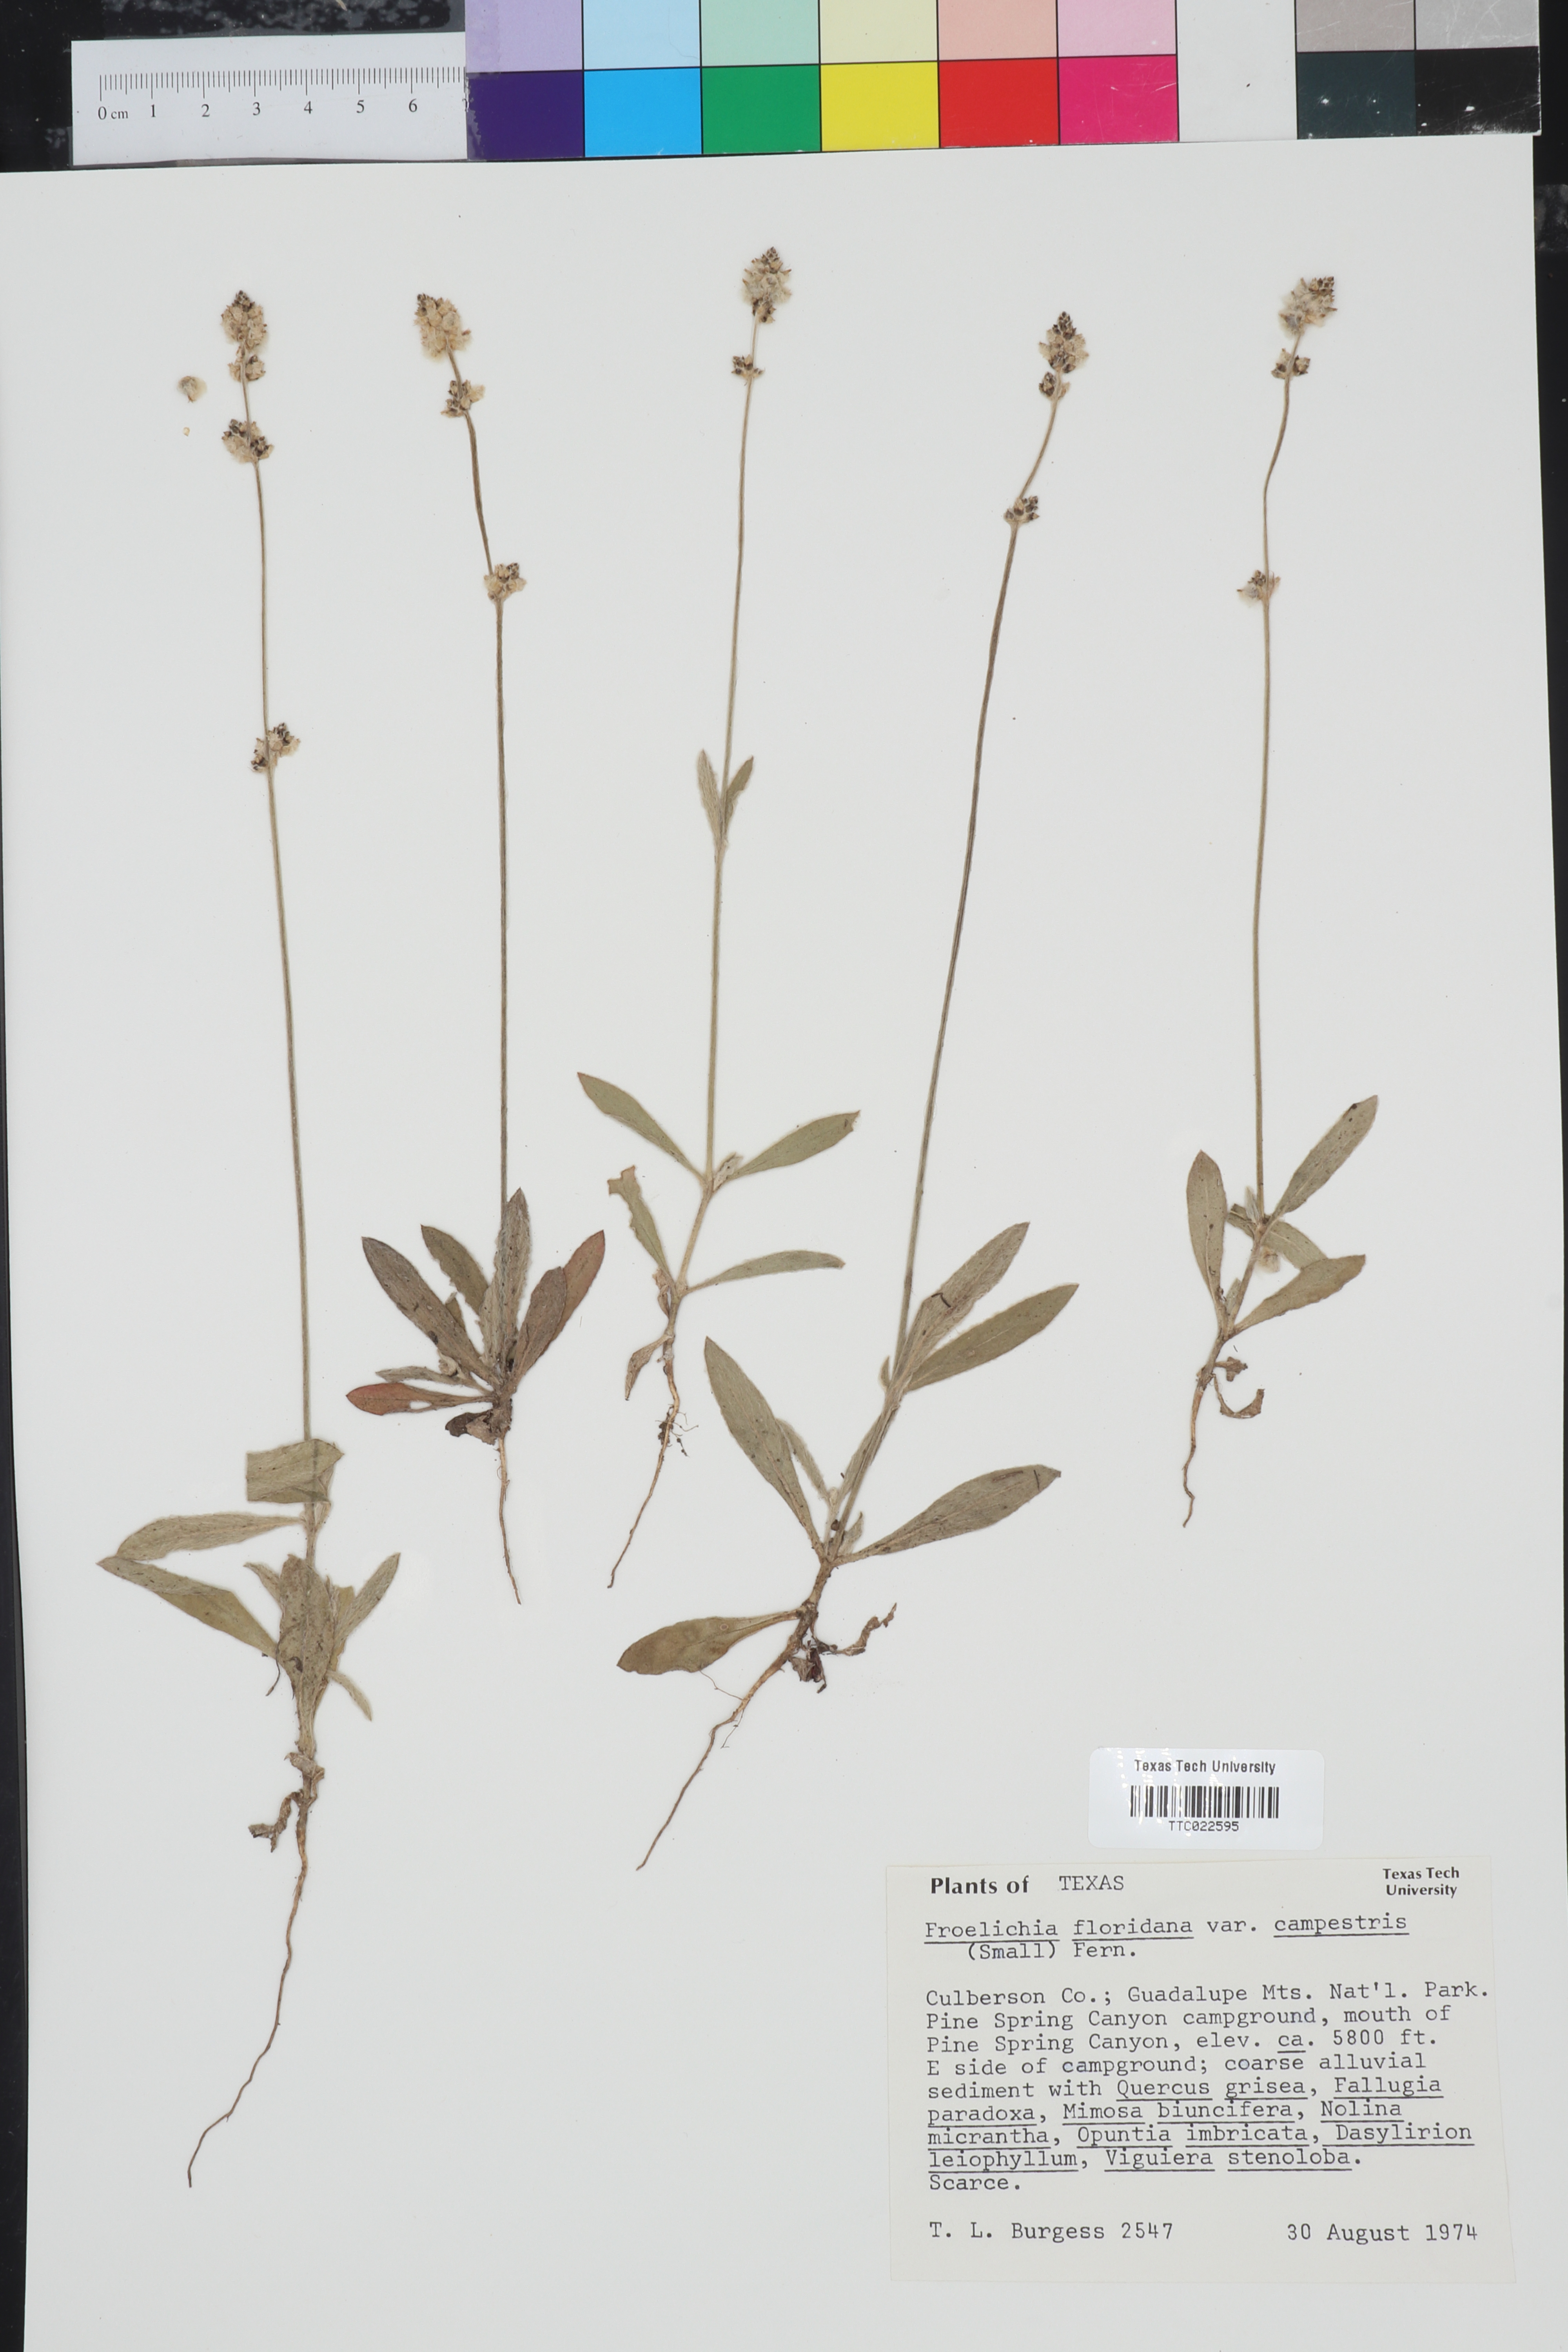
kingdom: Plantae
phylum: Tracheophyta
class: Magnoliopsida
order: Caryophyllales
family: Amaranthaceae
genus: Froelichia
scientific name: Froelichia floridana
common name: Florida snake-cotton
